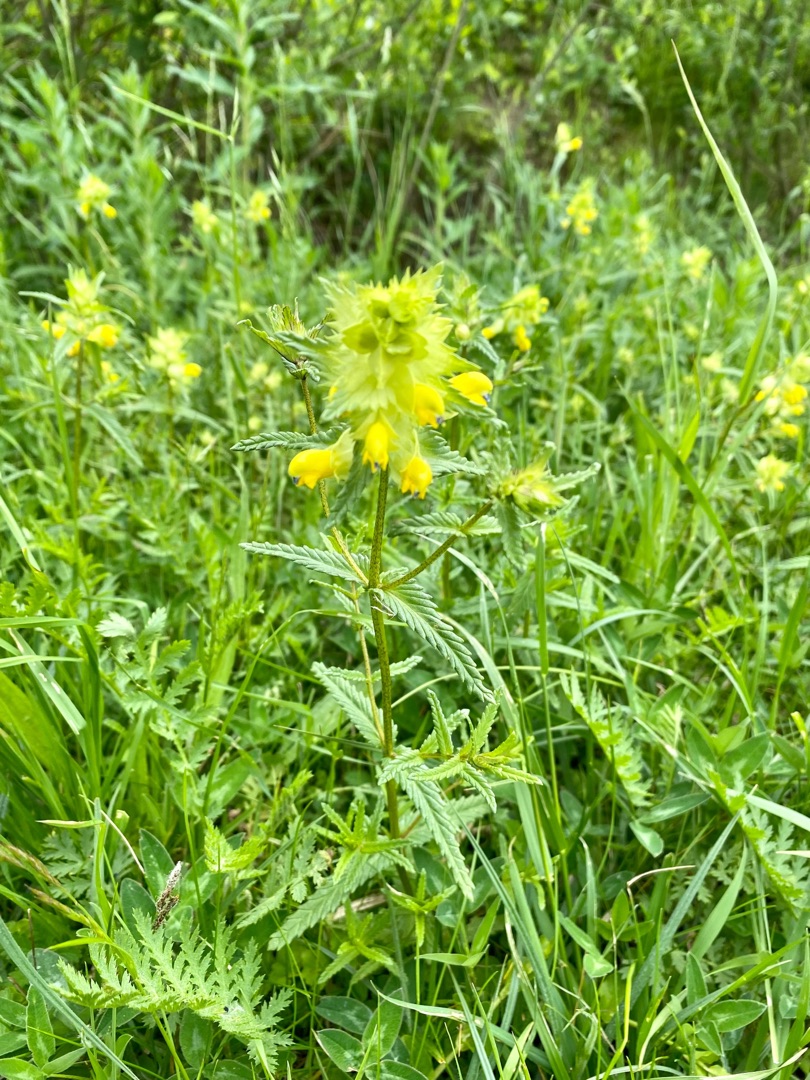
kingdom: Plantae
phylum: Tracheophyta
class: Magnoliopsida
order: Lamiales
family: Orobanchaceae
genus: Rhinanthus
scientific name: Rhinanthus
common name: Stor skjaller
